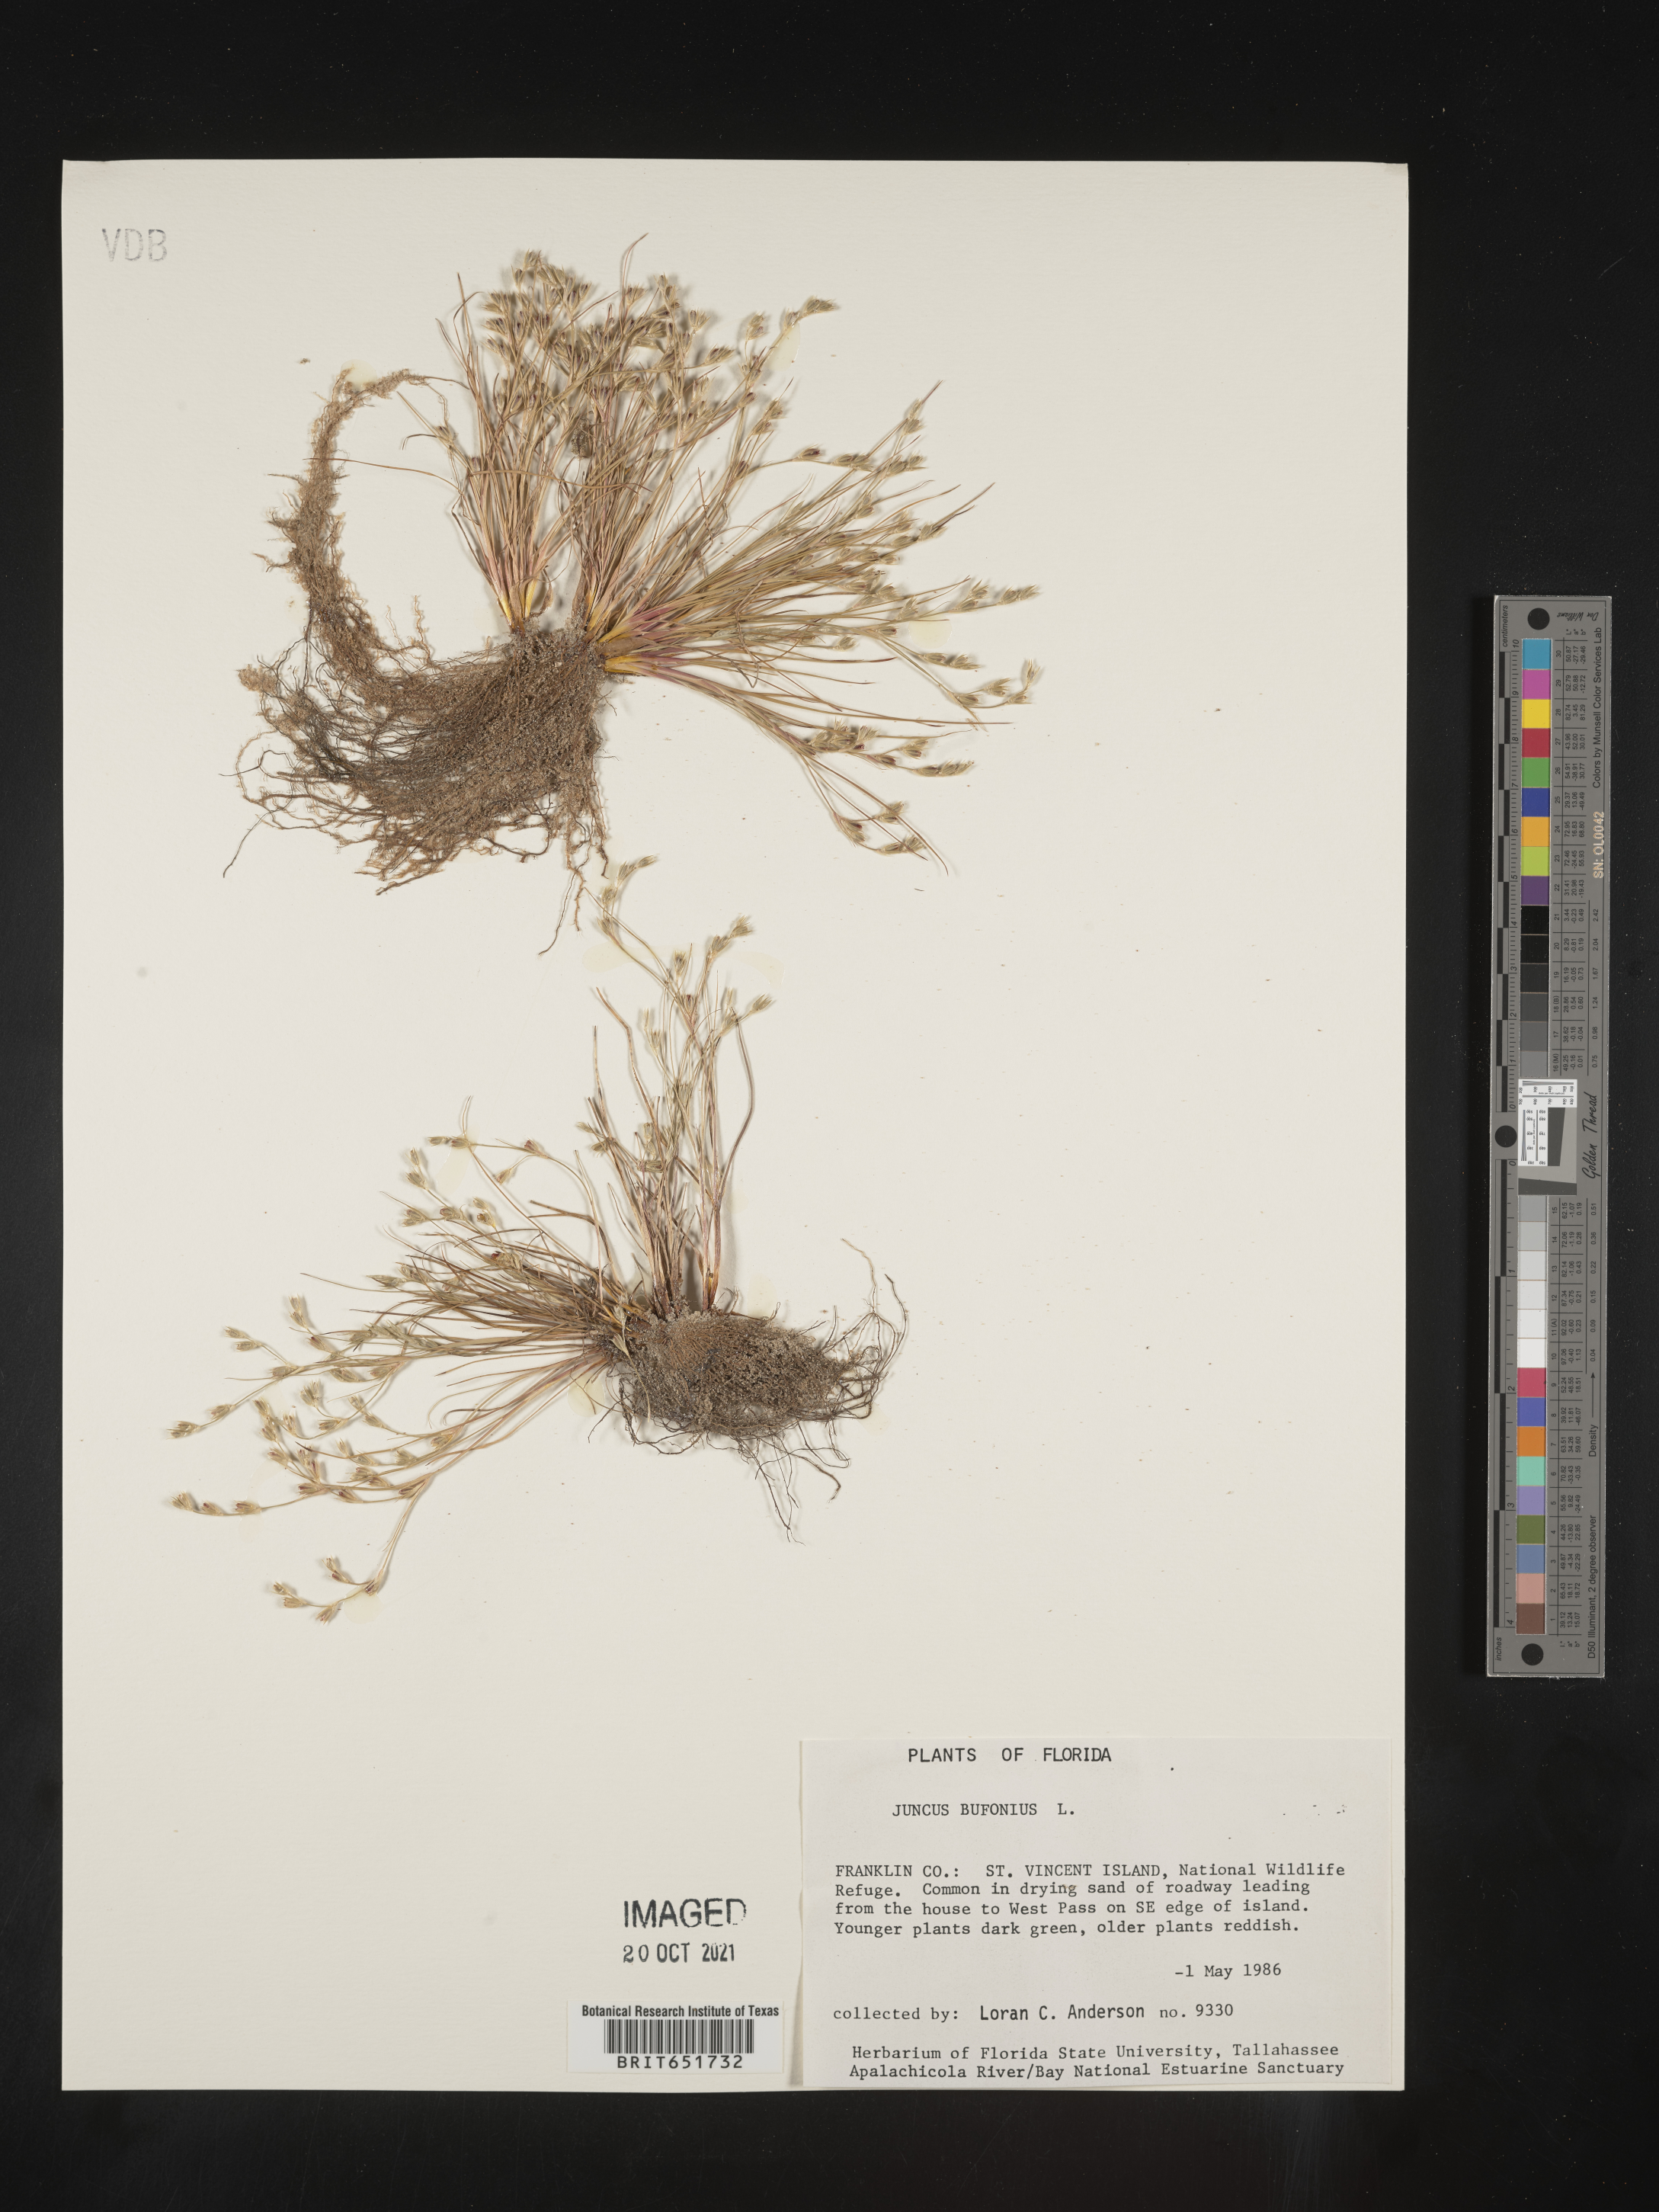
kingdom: Plantae
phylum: Tracheophyta
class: Liliopsida
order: Poales
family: Juncaceae
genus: Juncus
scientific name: Juncus bufonius
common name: Toad rush
